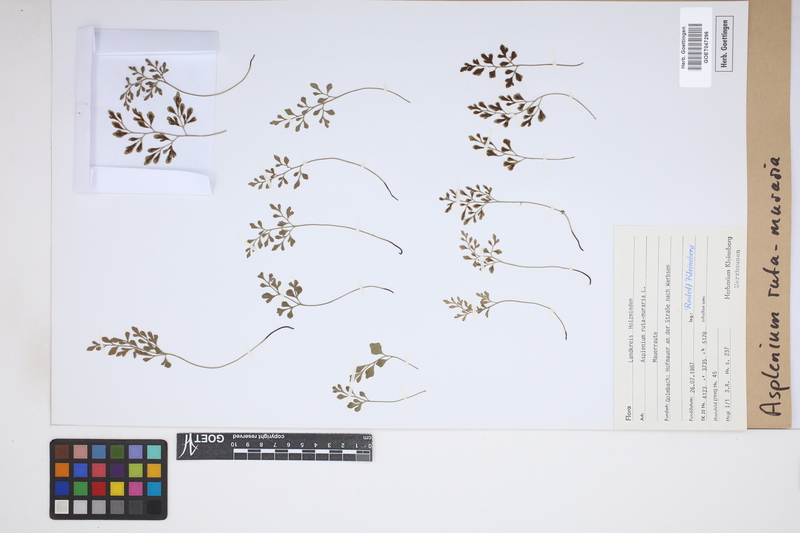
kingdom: Plantae
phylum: Tracheophyta
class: Polypodiopsida
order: Polypodiales
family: Aspleniaceae
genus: Asplenium
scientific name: Asplenium ruta-muraria
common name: Wall-rue
